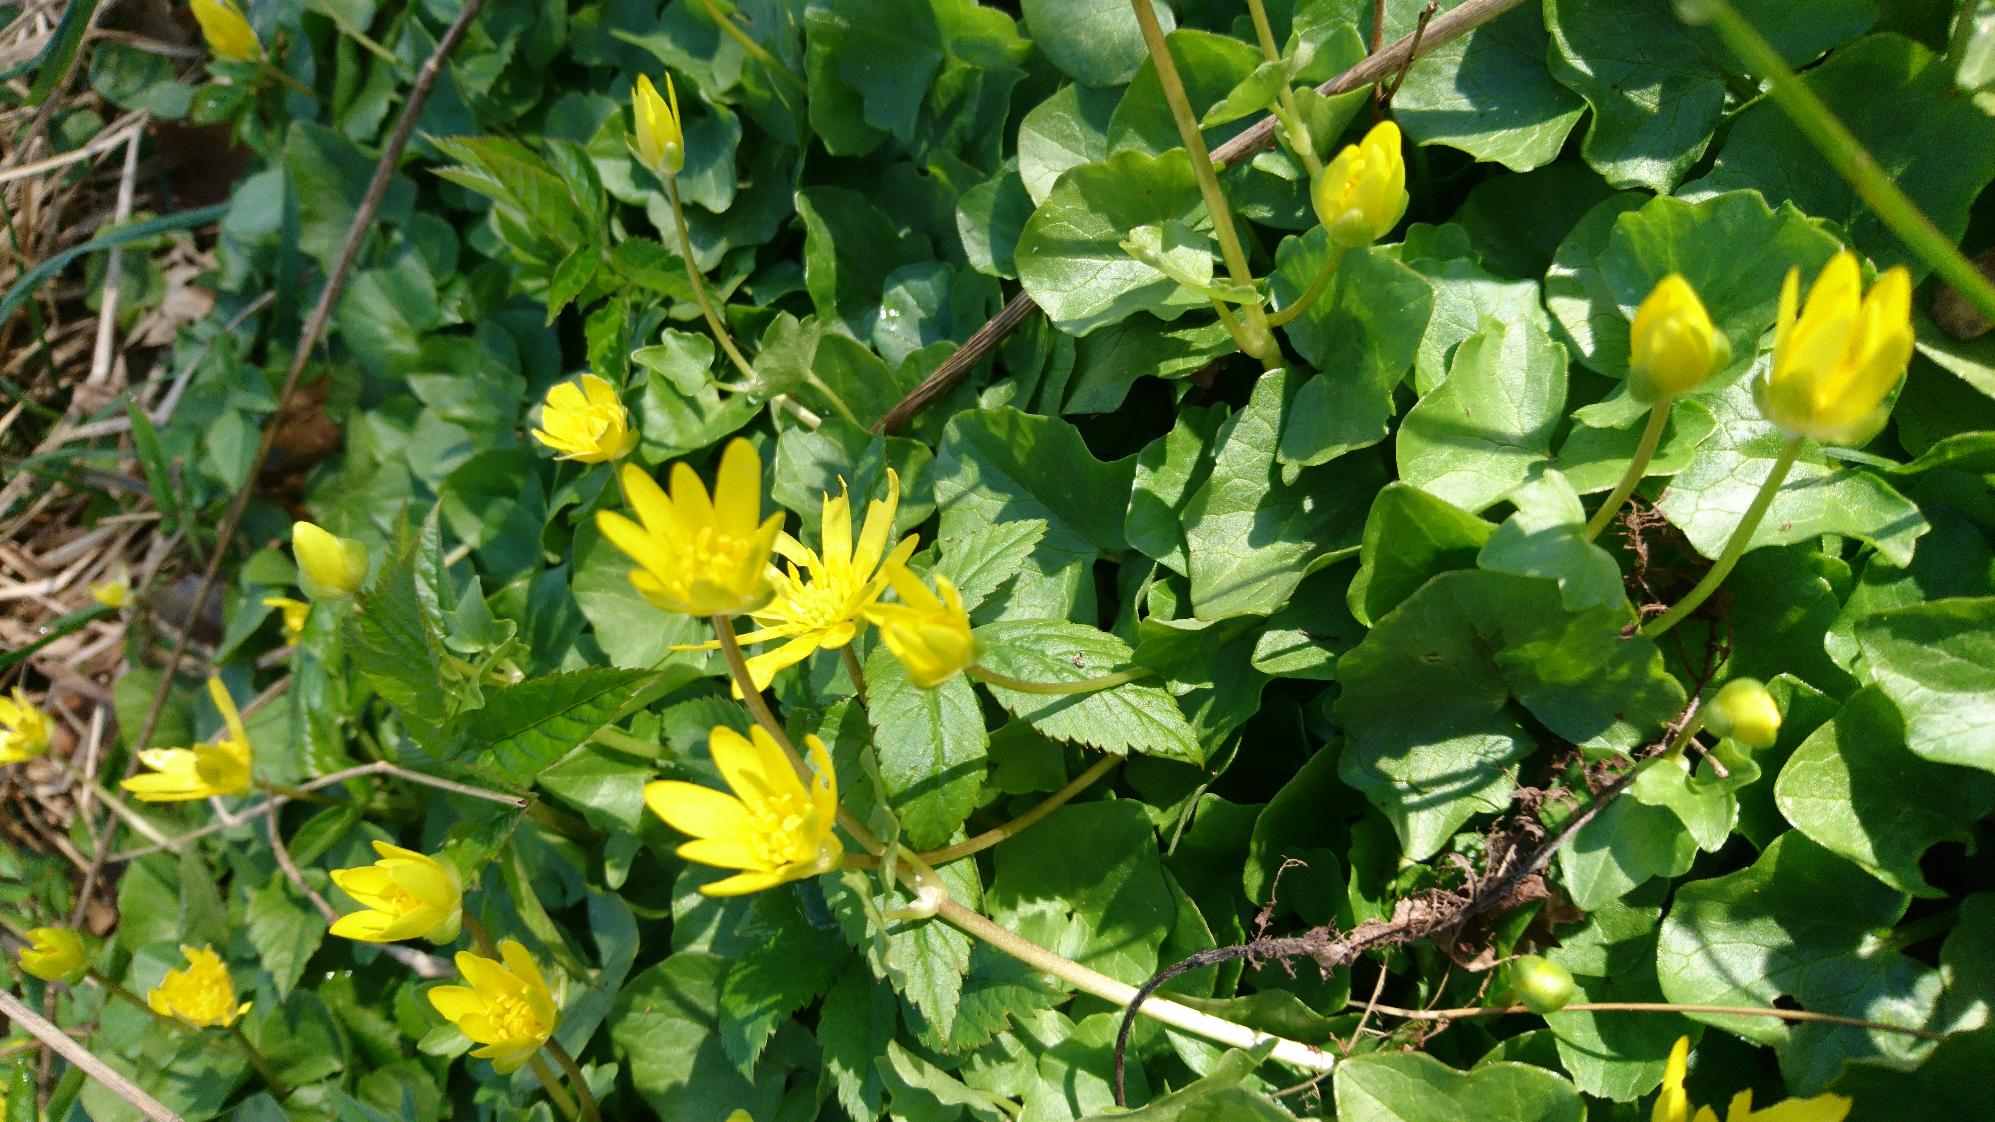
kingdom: Plantae
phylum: Tracheophyta
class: Magnoliopsida
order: Ranunculales
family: Ranunculaceae
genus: Ficaria
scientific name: Ficaria verna
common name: Vorterod
